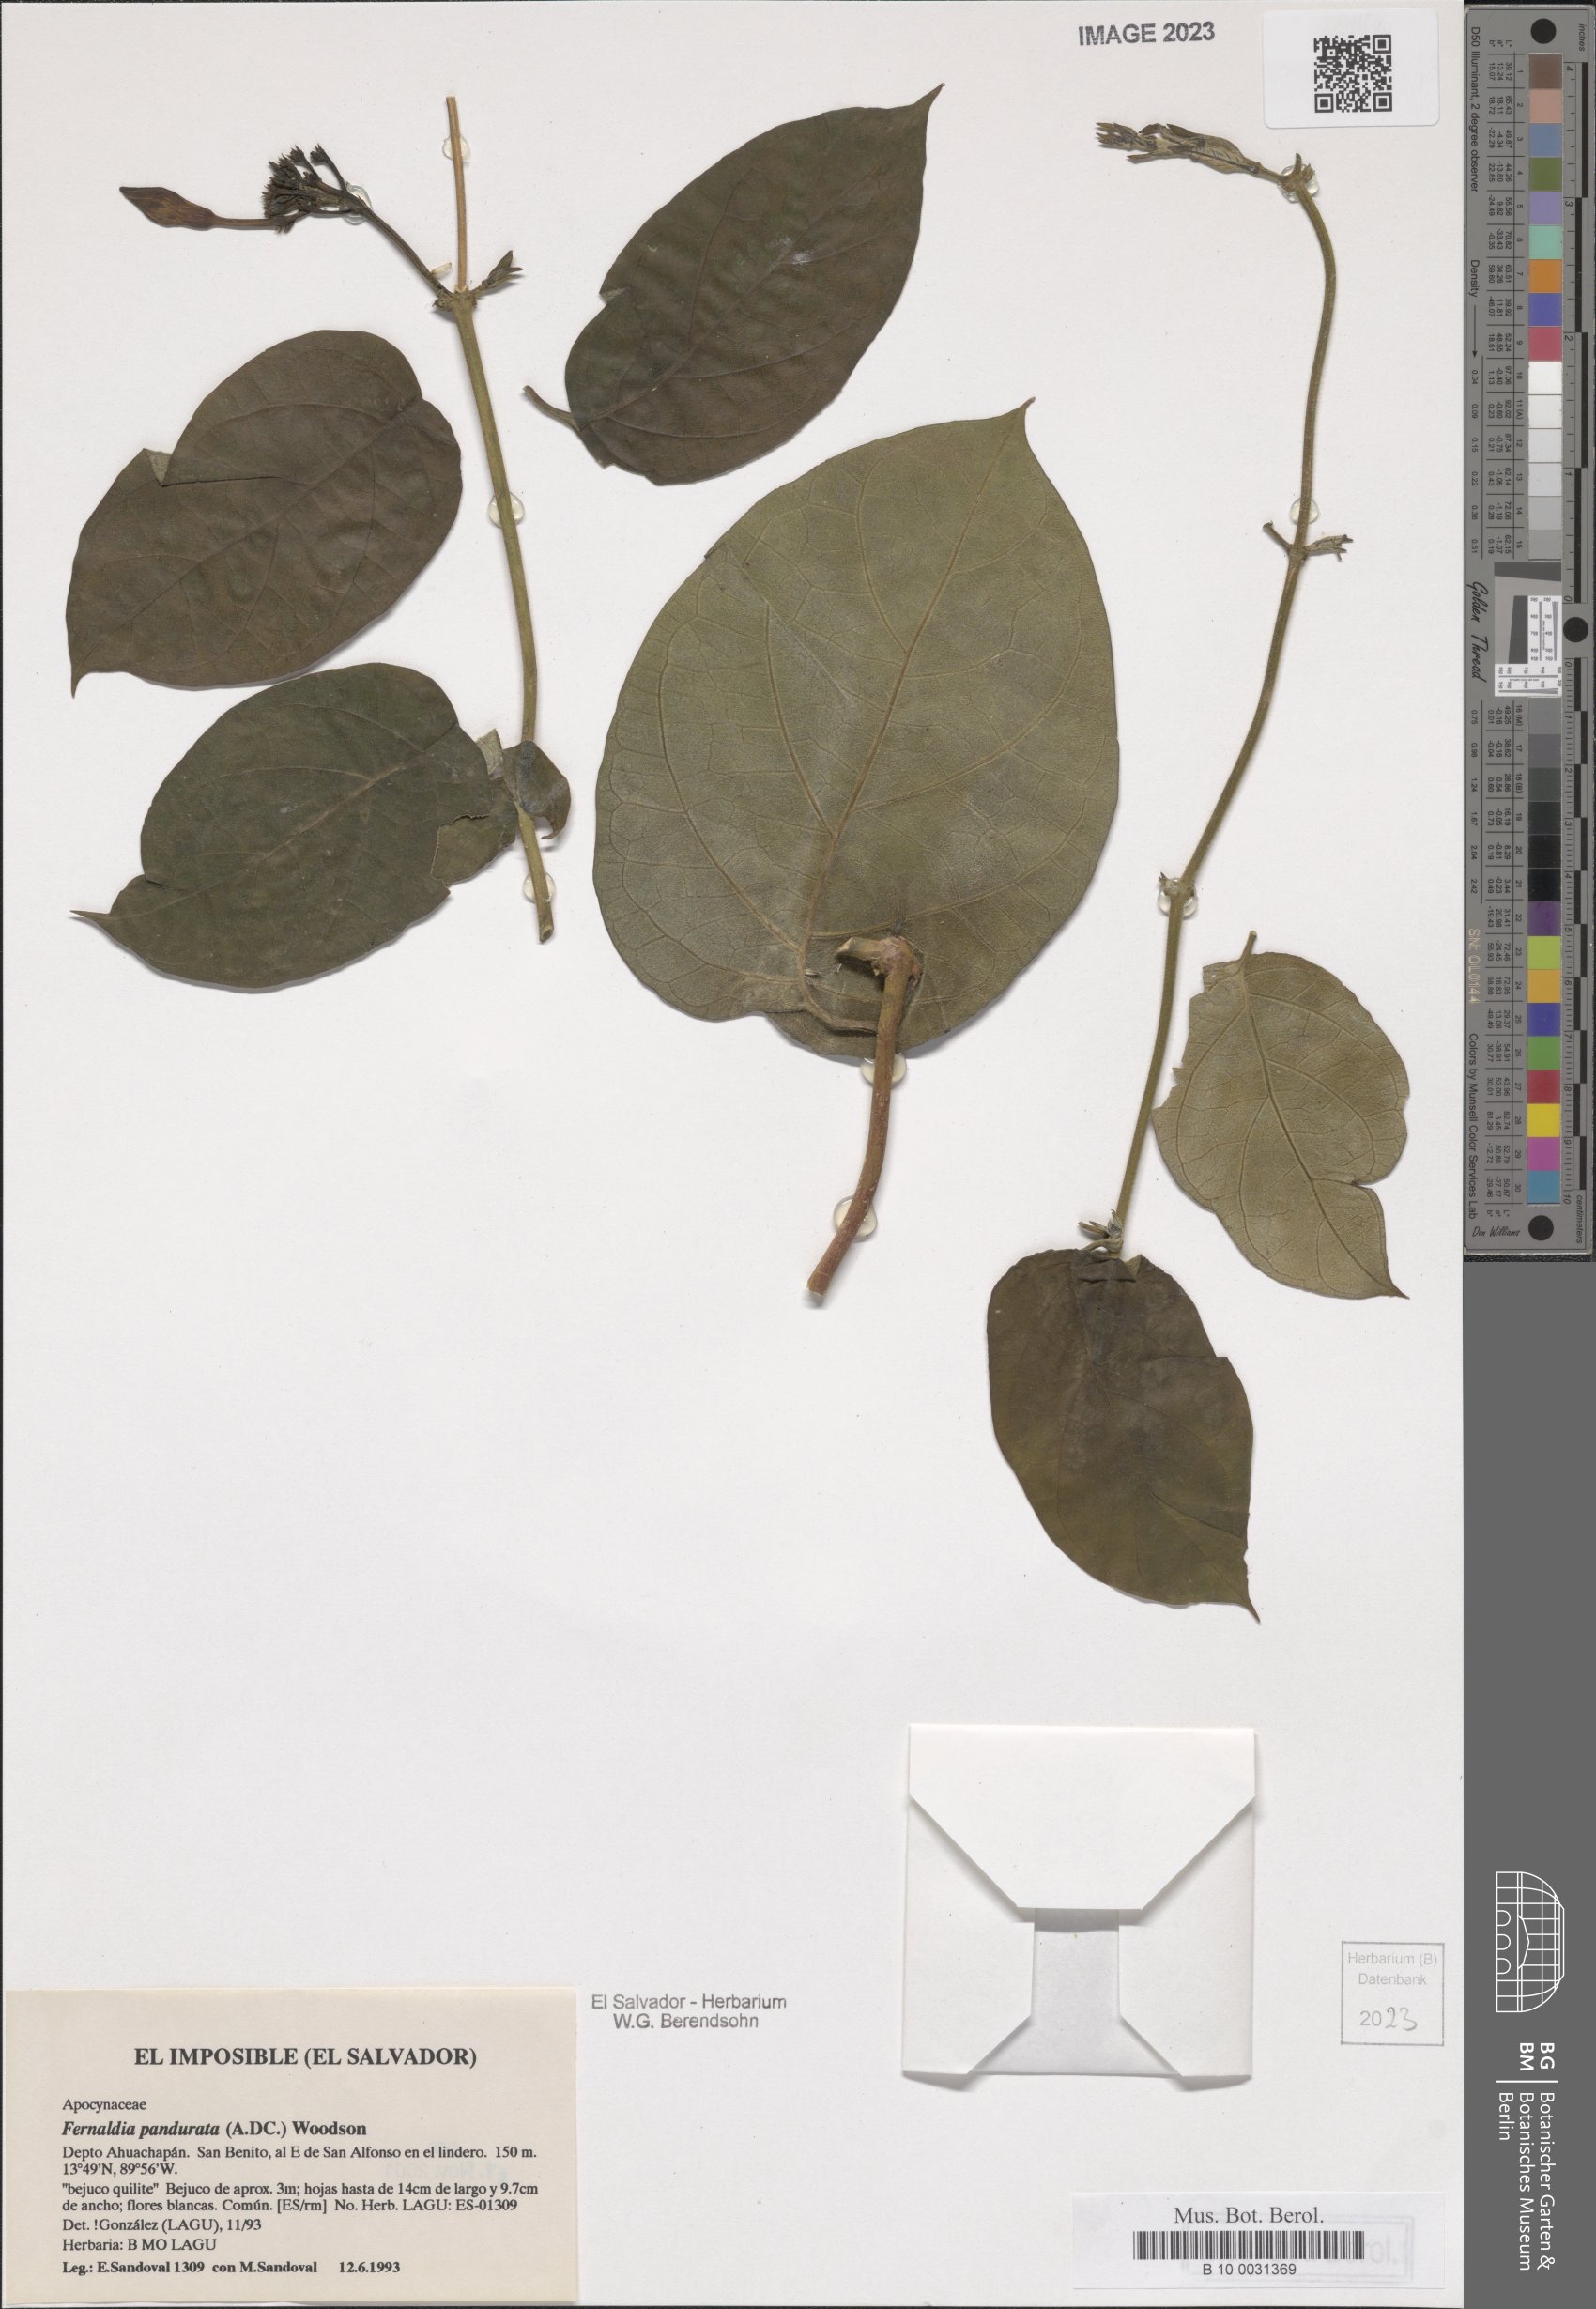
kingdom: Plantae
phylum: Tracheophyta
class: Magnoliopsida
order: Gentianales
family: Apocynaceae
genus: Echites
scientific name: Echites panduratus
